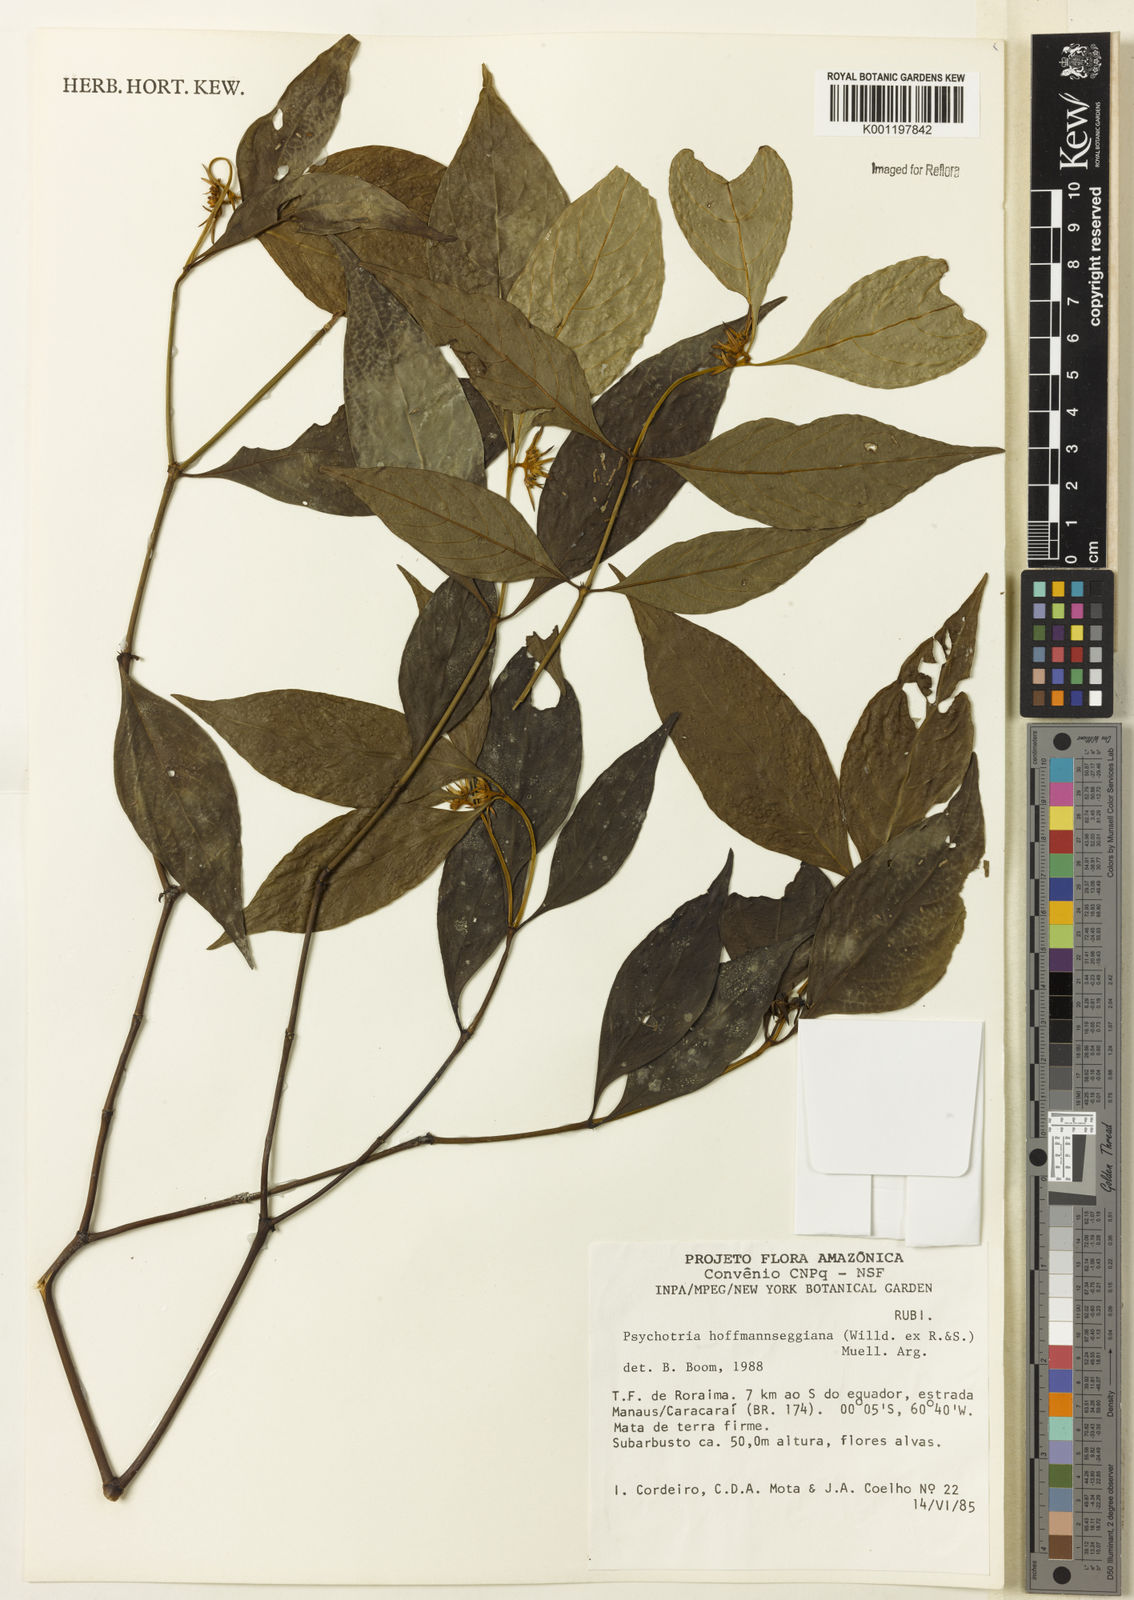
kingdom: Plantae
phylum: Tracheophyta
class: Magnoliopsida
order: Gentianales
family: Rubiaceae
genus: Psychotria
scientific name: Psychotria
